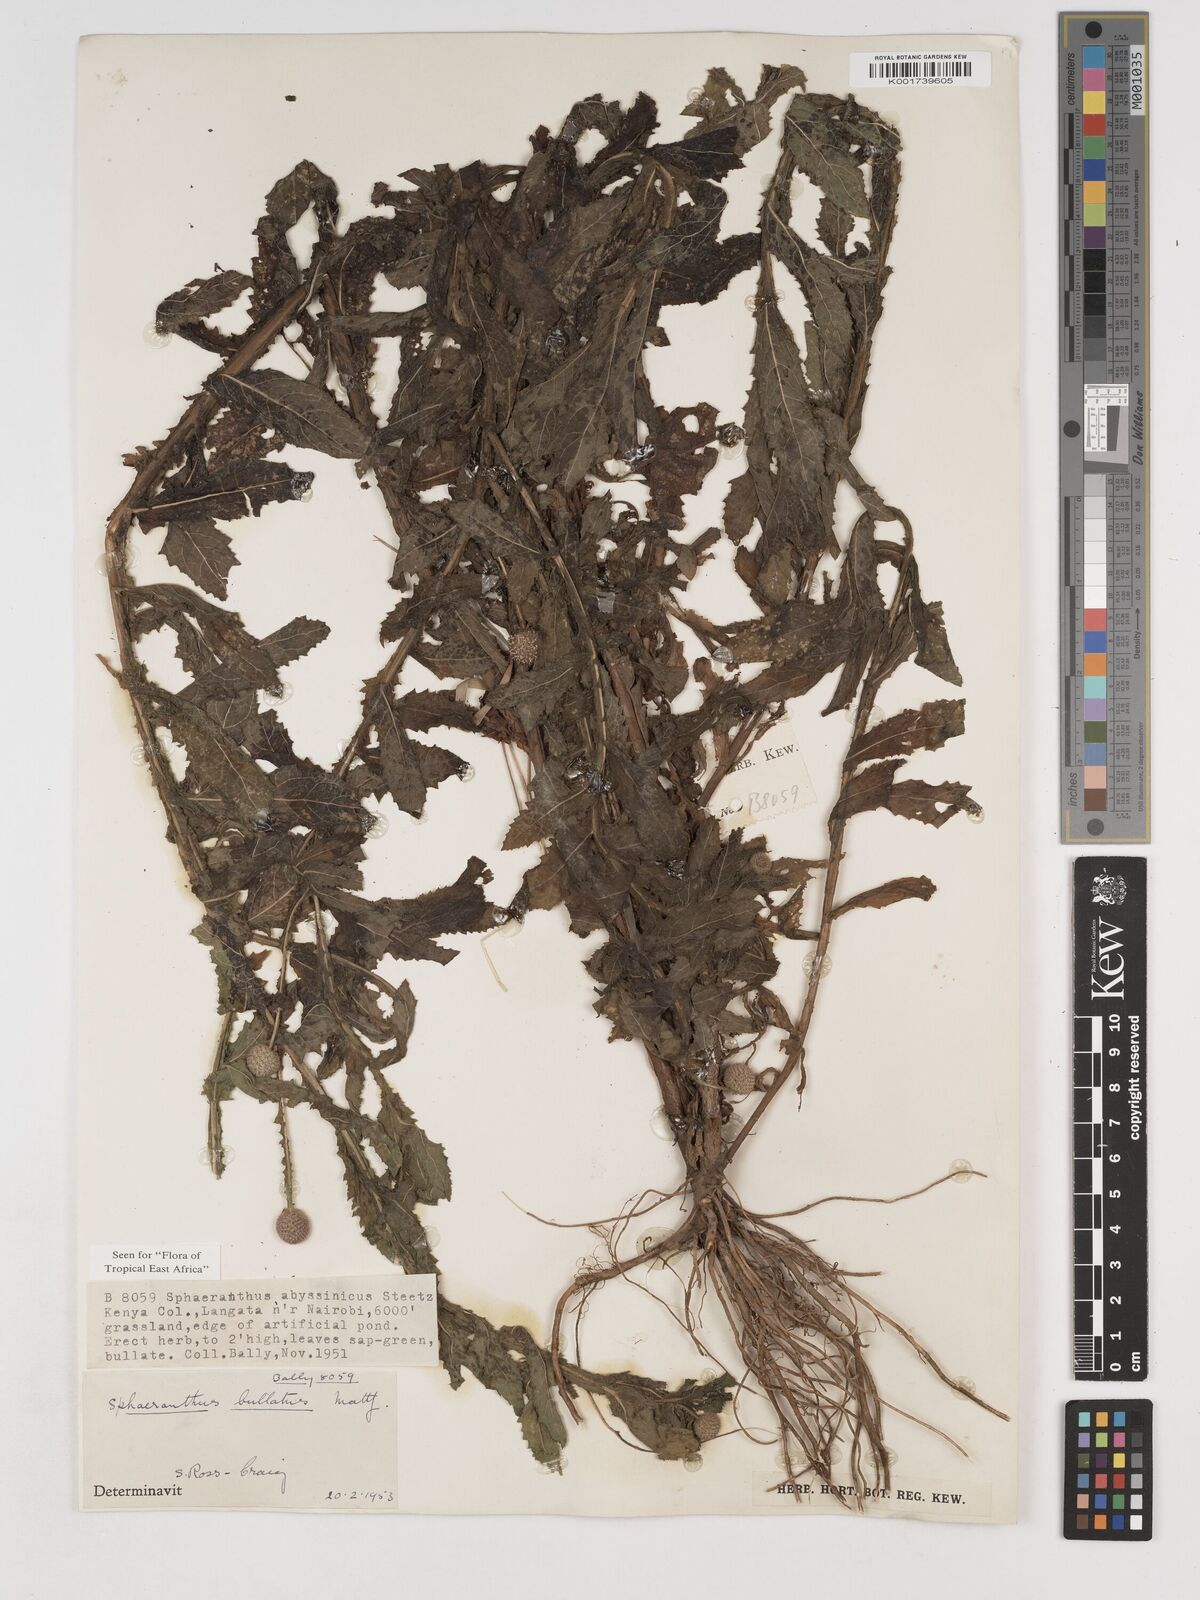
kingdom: Plantae
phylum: Tracheophyta
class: Magnoliopsida
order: Asterales
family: Asteraceae
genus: Sphaeranthus
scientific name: Sphaeranthus bullatus
